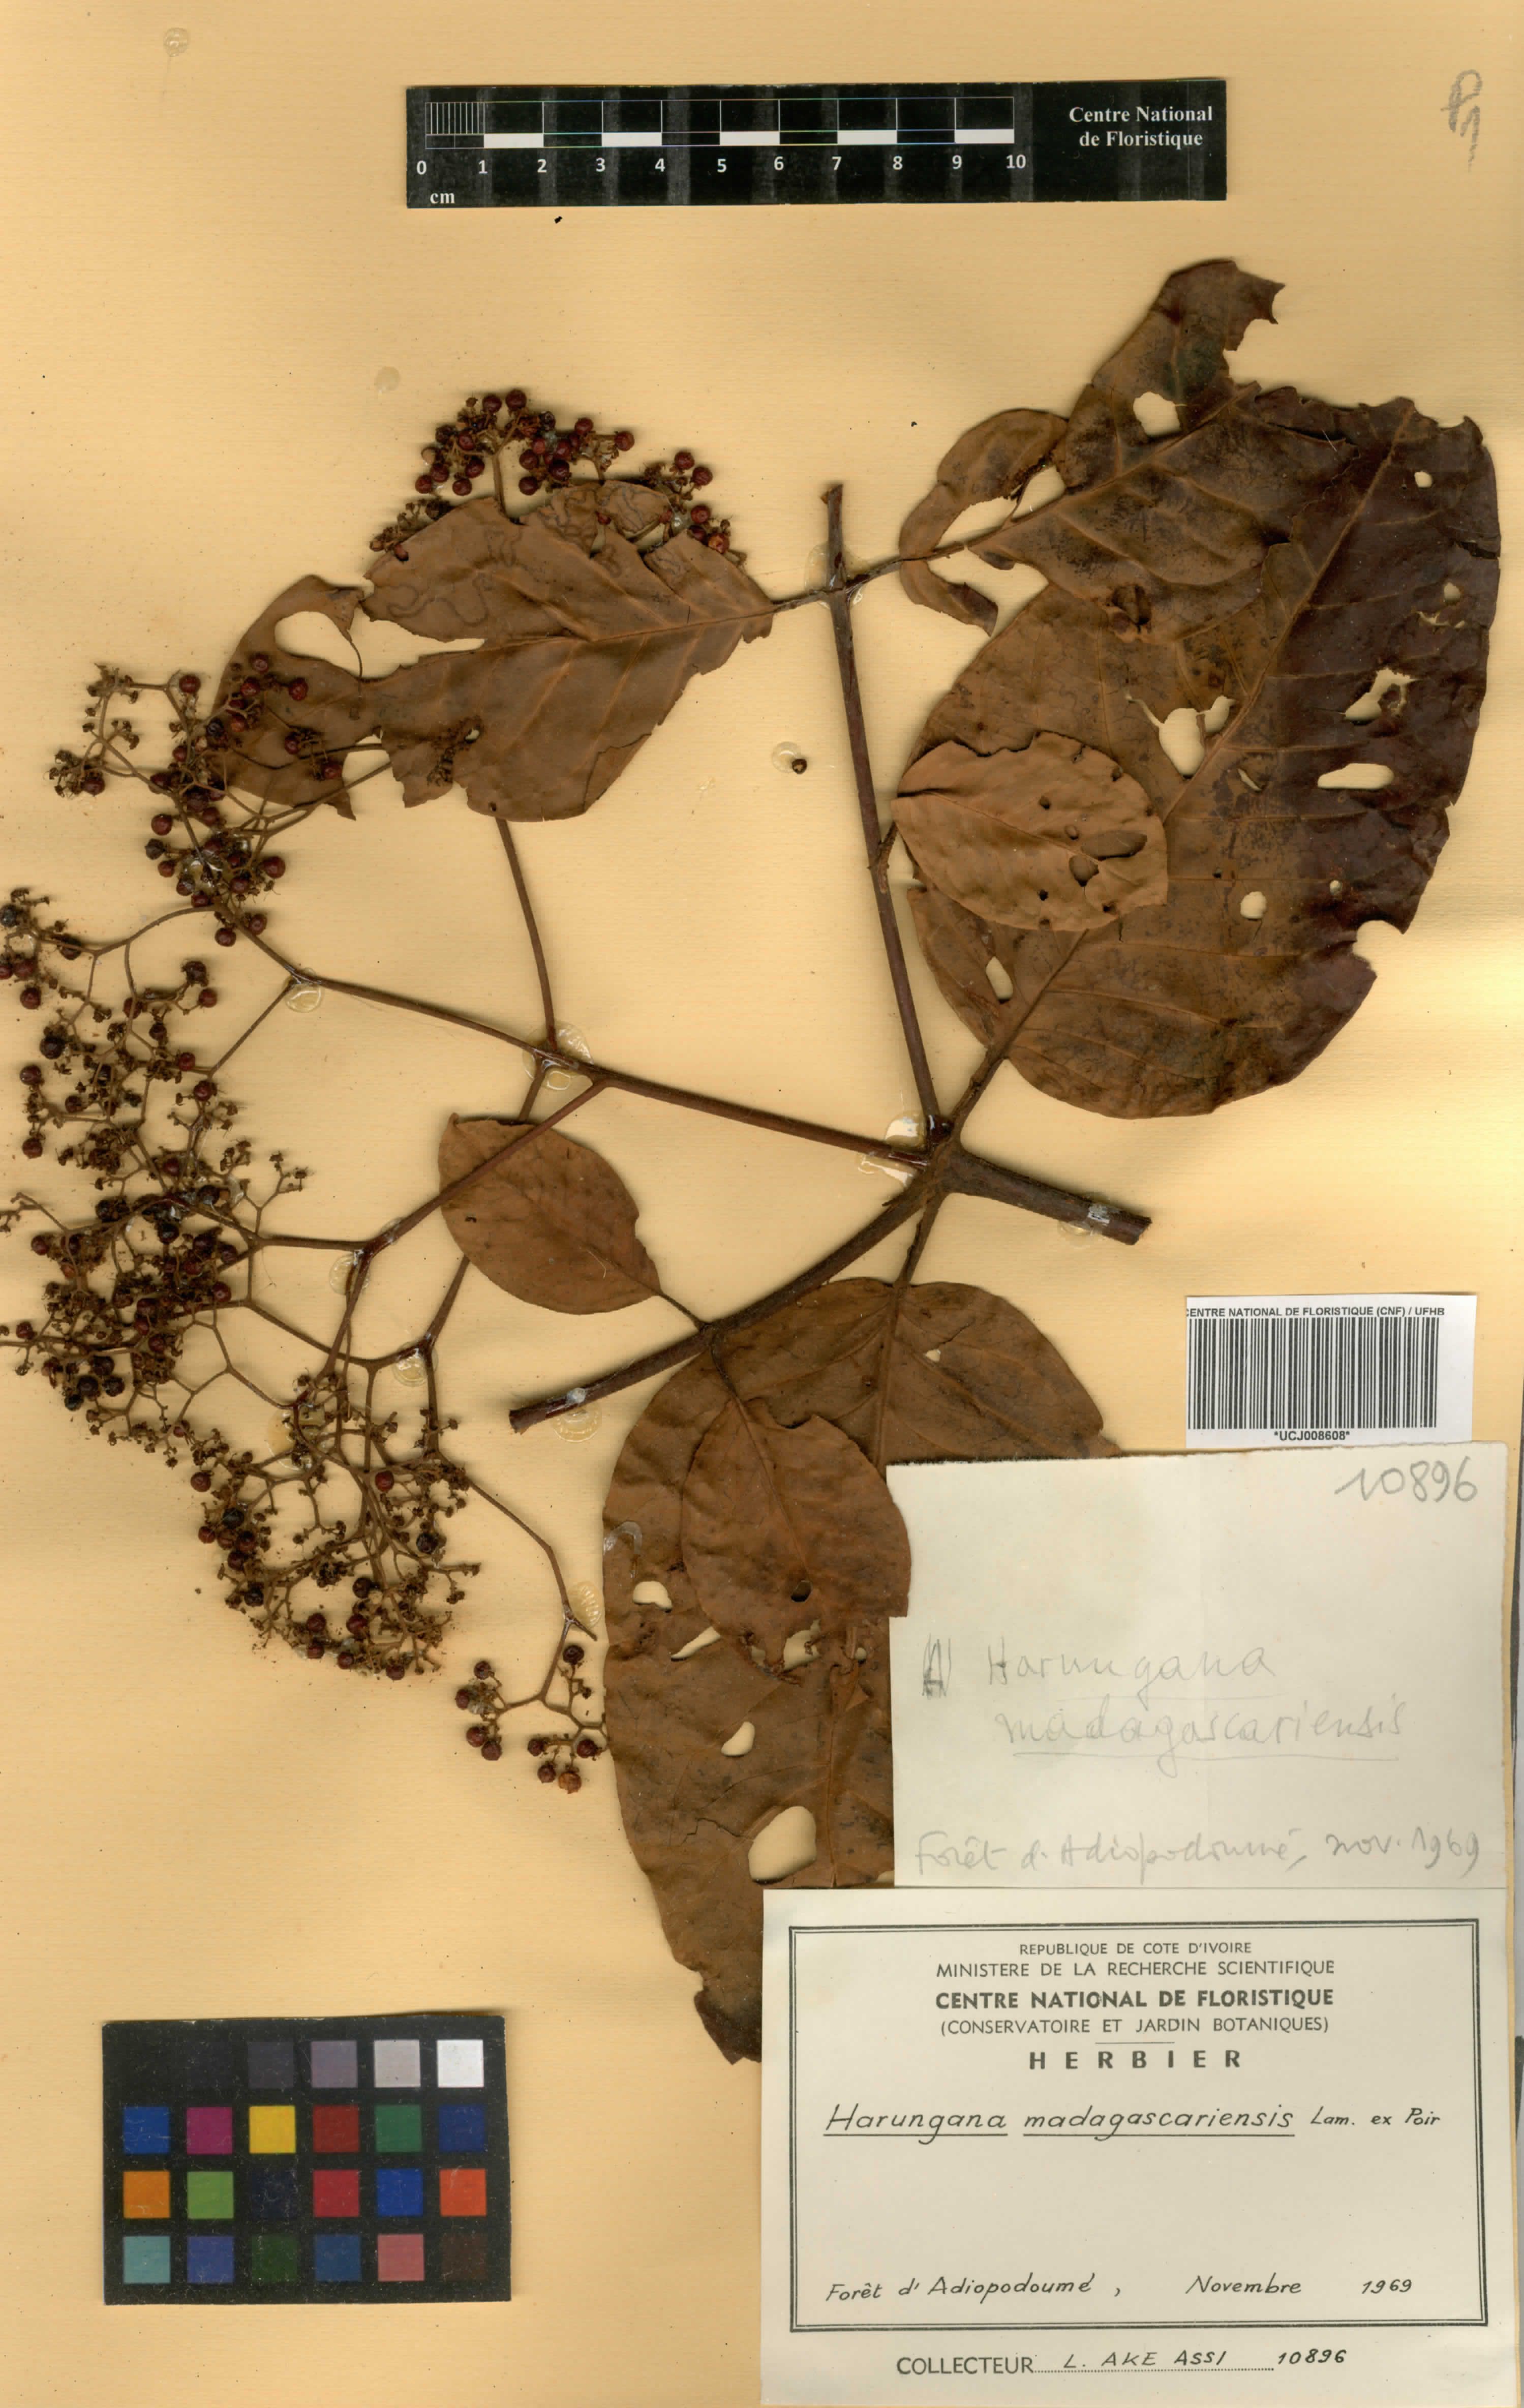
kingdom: Plantae
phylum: Tracheophyta
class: Magnoliopsida
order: Malpighiales
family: Hypericaceae
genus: Harungana
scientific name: Harungana madagascariensis
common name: Orange milktree
